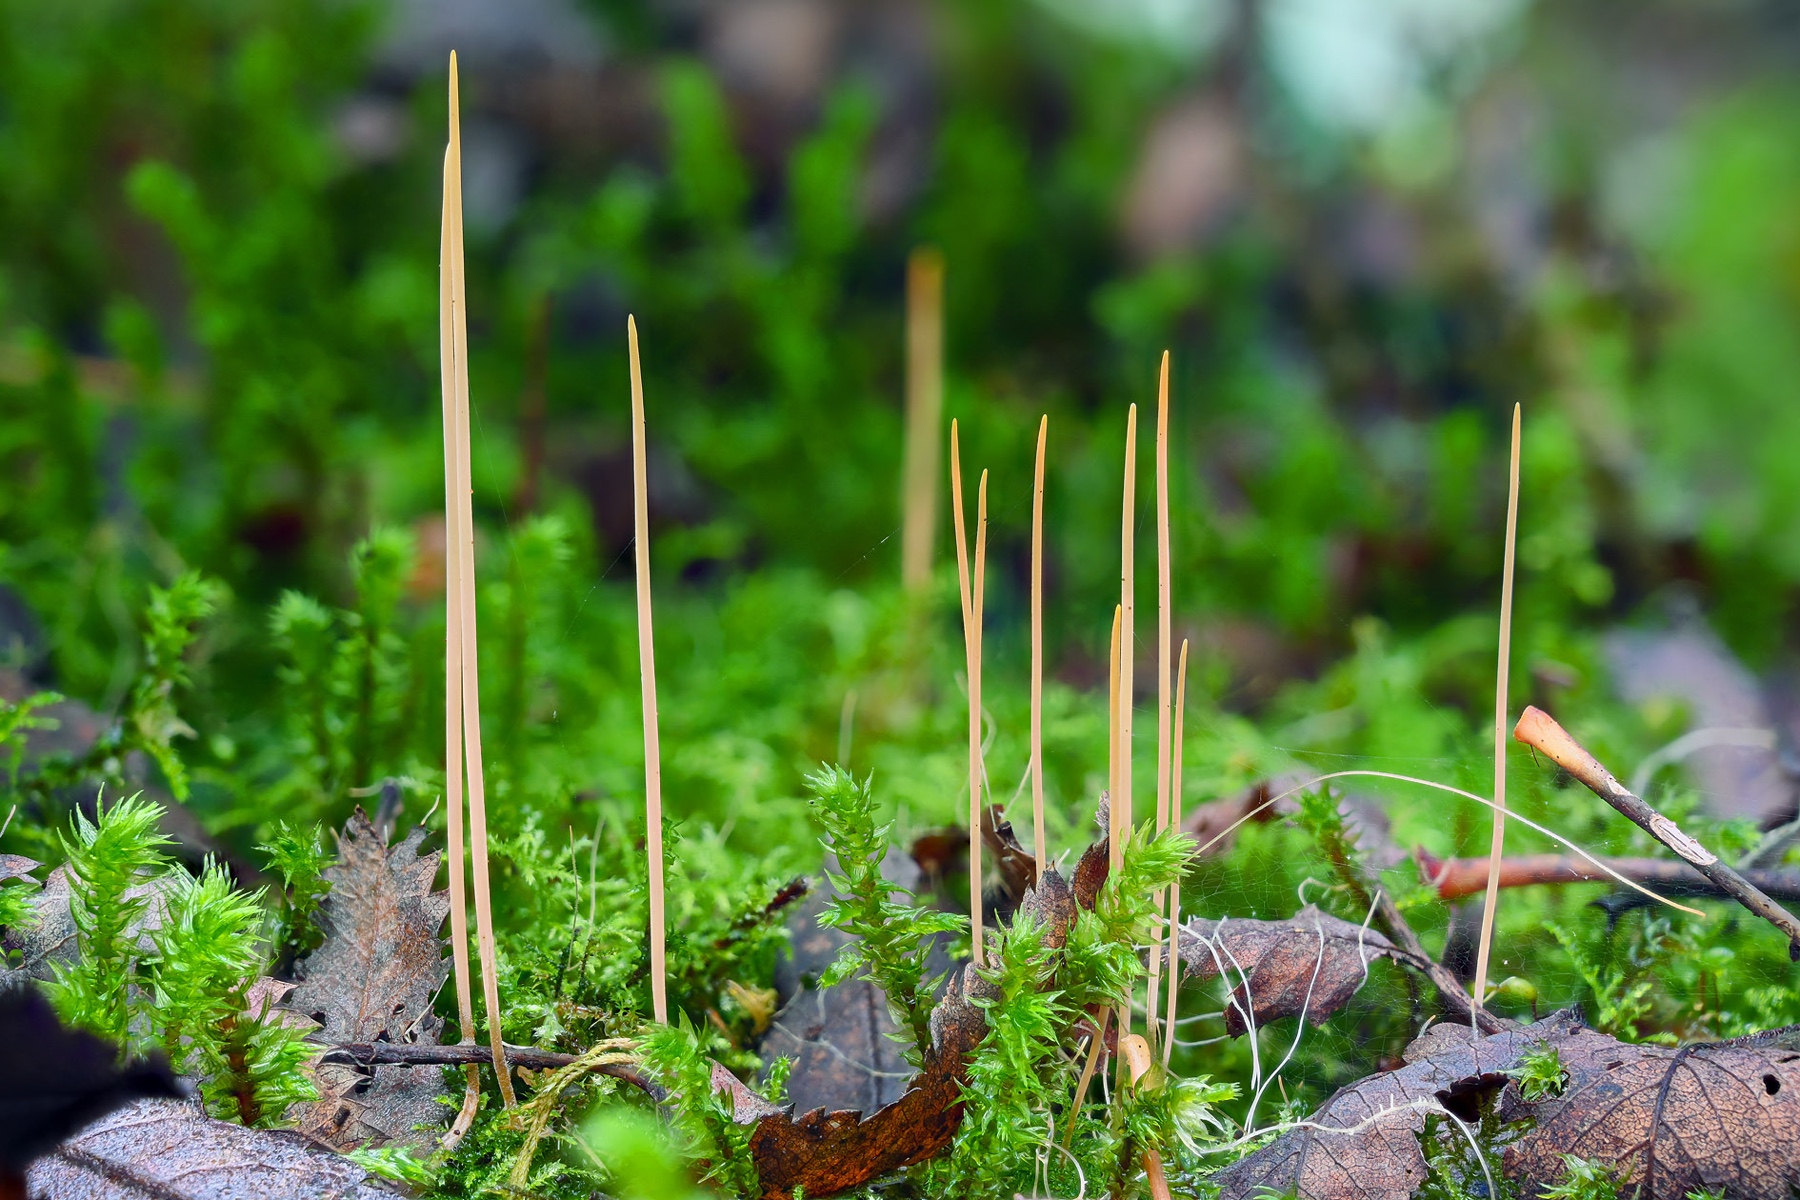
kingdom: Fungi
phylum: Basidiomycota
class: Agaricomycetes
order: Agaricales
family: Typhulaceae
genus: Typhula
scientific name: Typhula juncea
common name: trådagtig rørkølle
